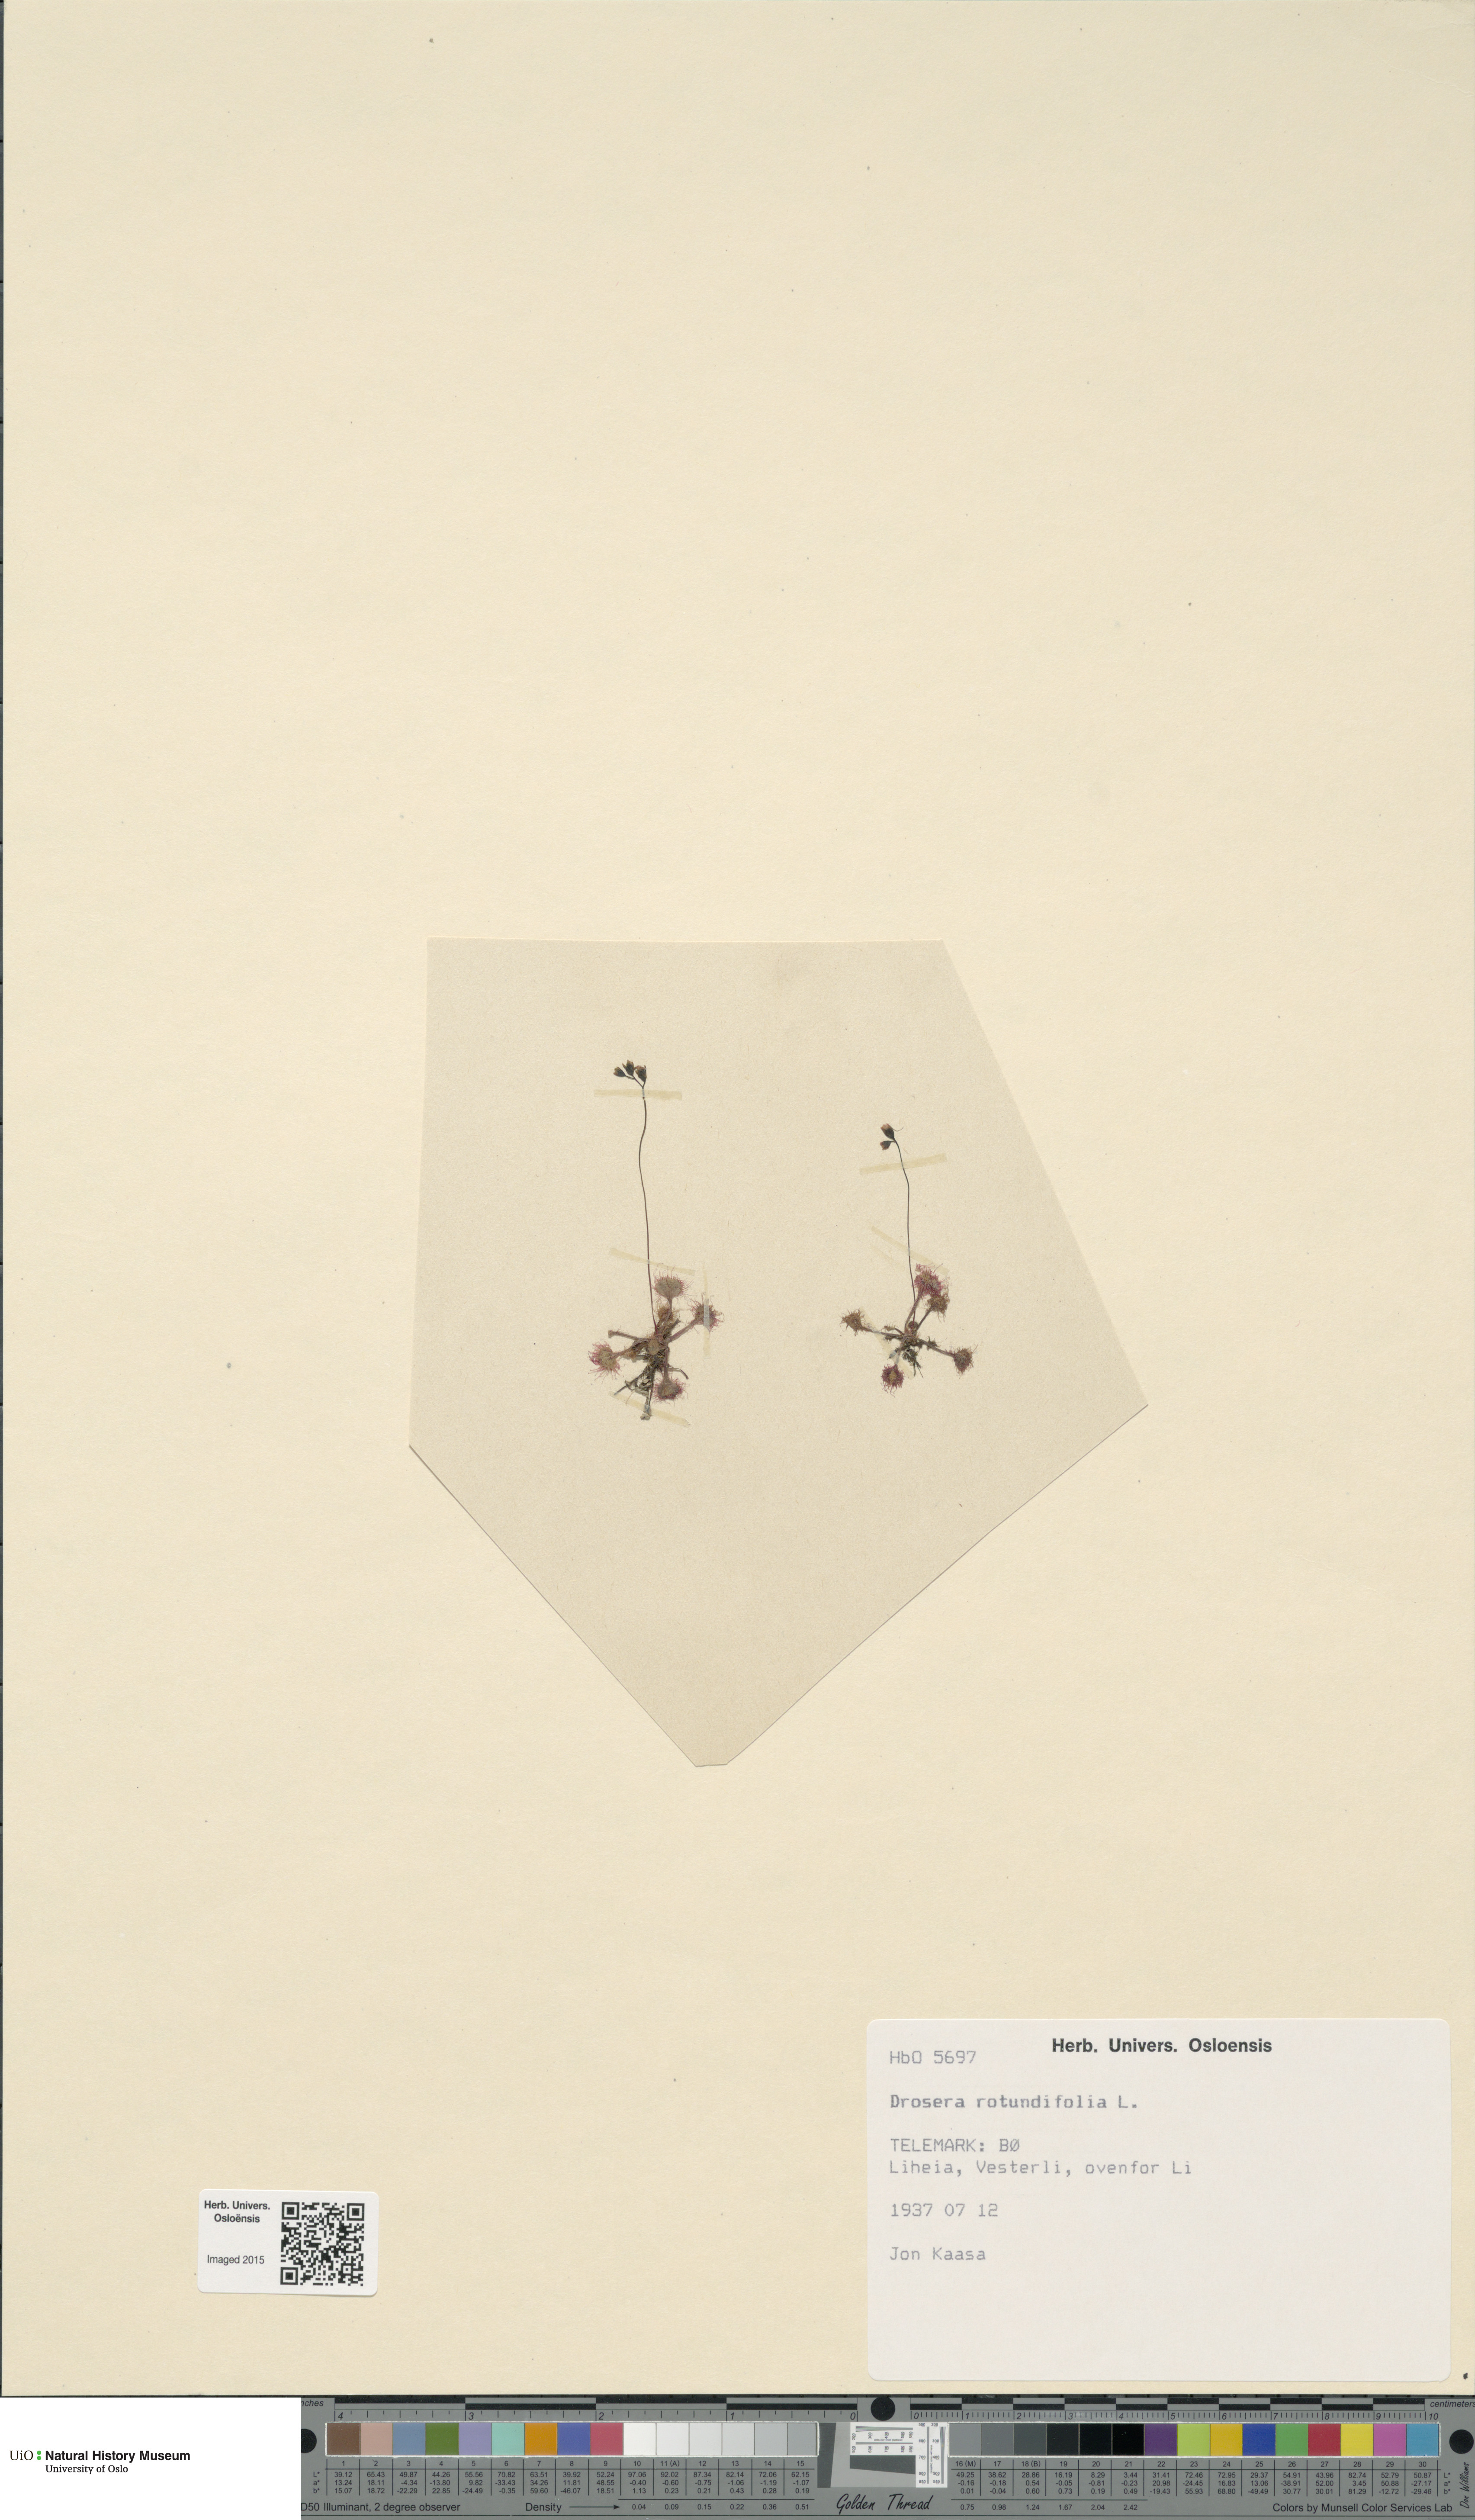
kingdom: Plantae
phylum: Tracheophyta
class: Magnoliopsida
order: Caryophyllales
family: Droseraceae
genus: Drosera
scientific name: Drosera rotundifolia
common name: Round-leaved sundew
